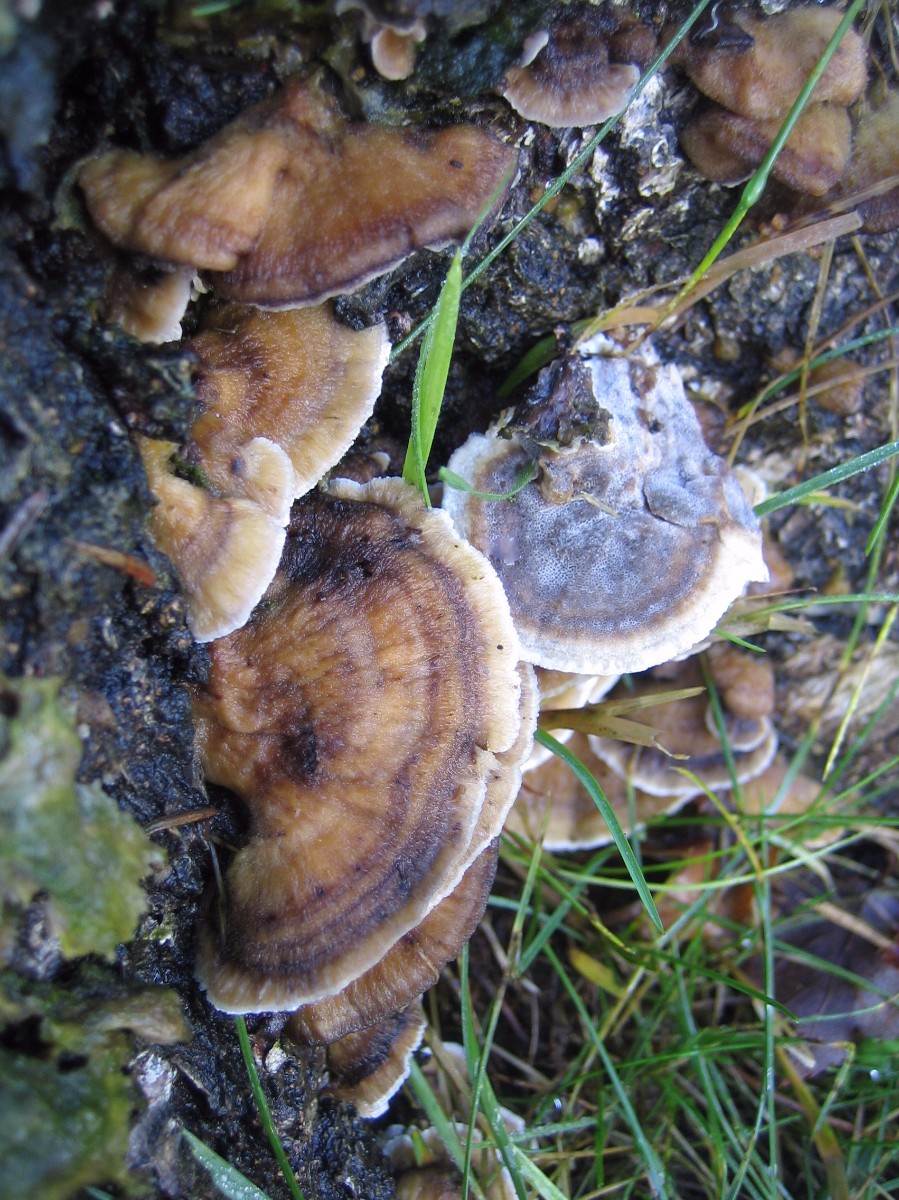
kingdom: Fungi
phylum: Basidiomycota
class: Agaricomycetes
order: Polyporales
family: Phanerochaetaceae
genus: Bjerkandera
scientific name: Bjerkandera adusta
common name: sveden sodporesvamp
